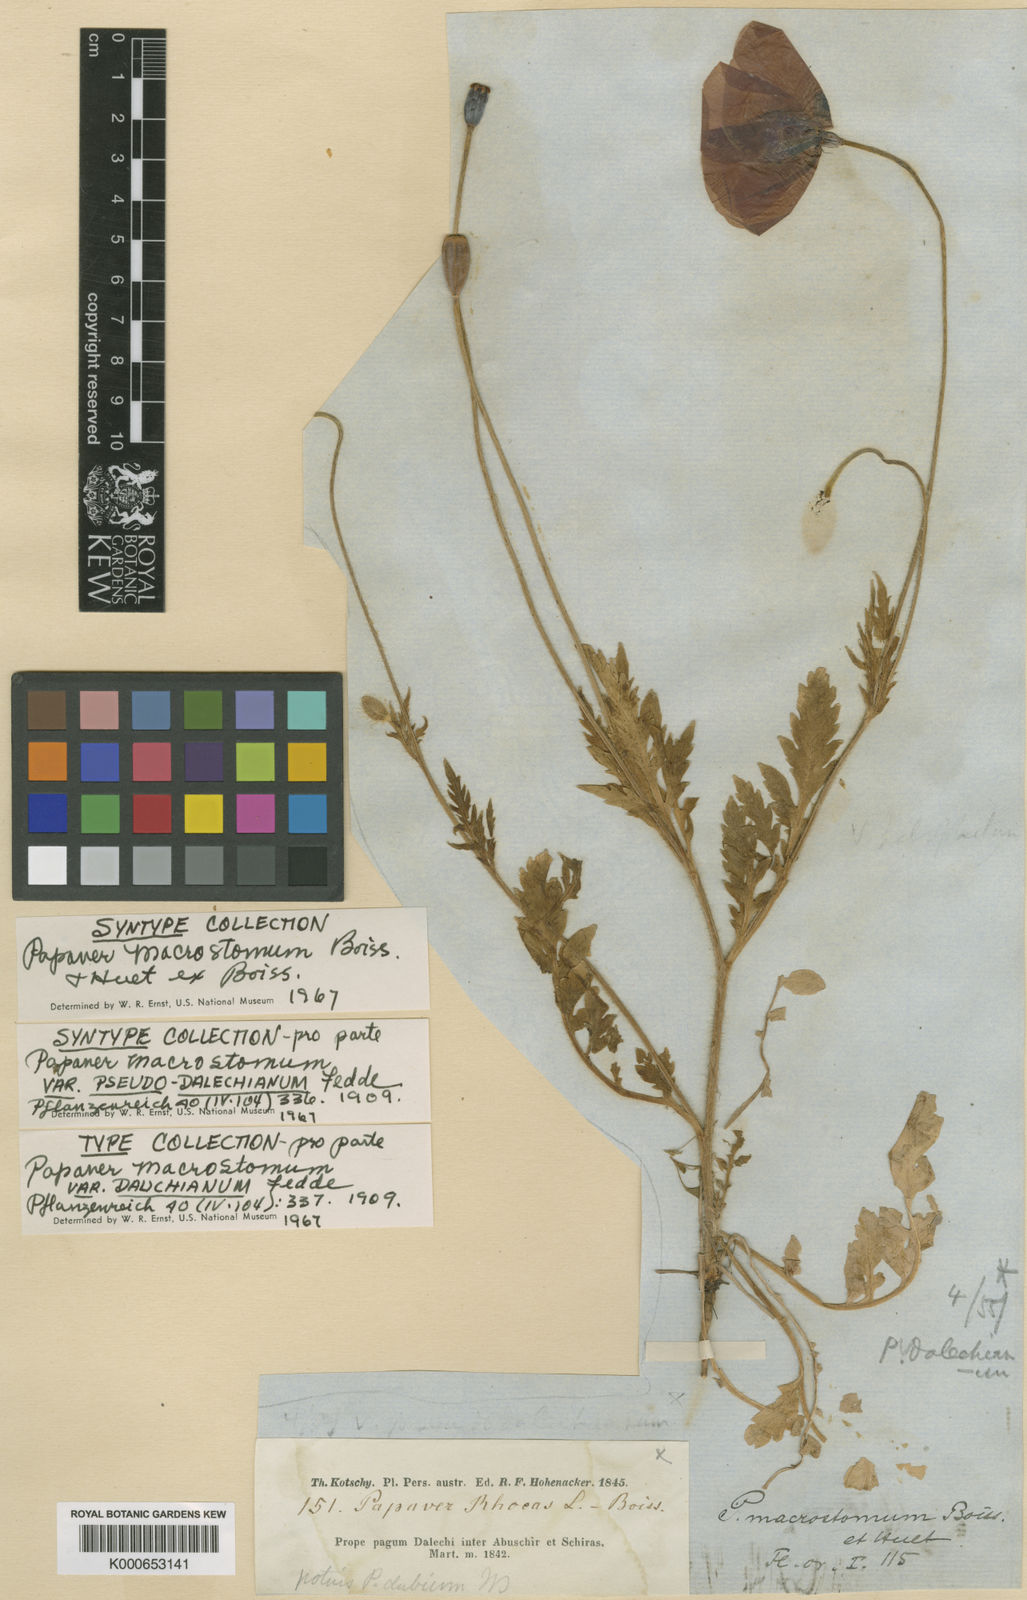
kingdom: Plantae
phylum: Tracheophyta
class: Magnoliopsida
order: Ranunculales
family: Papaveraceae
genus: Papaver
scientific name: Papaver macrostomum
